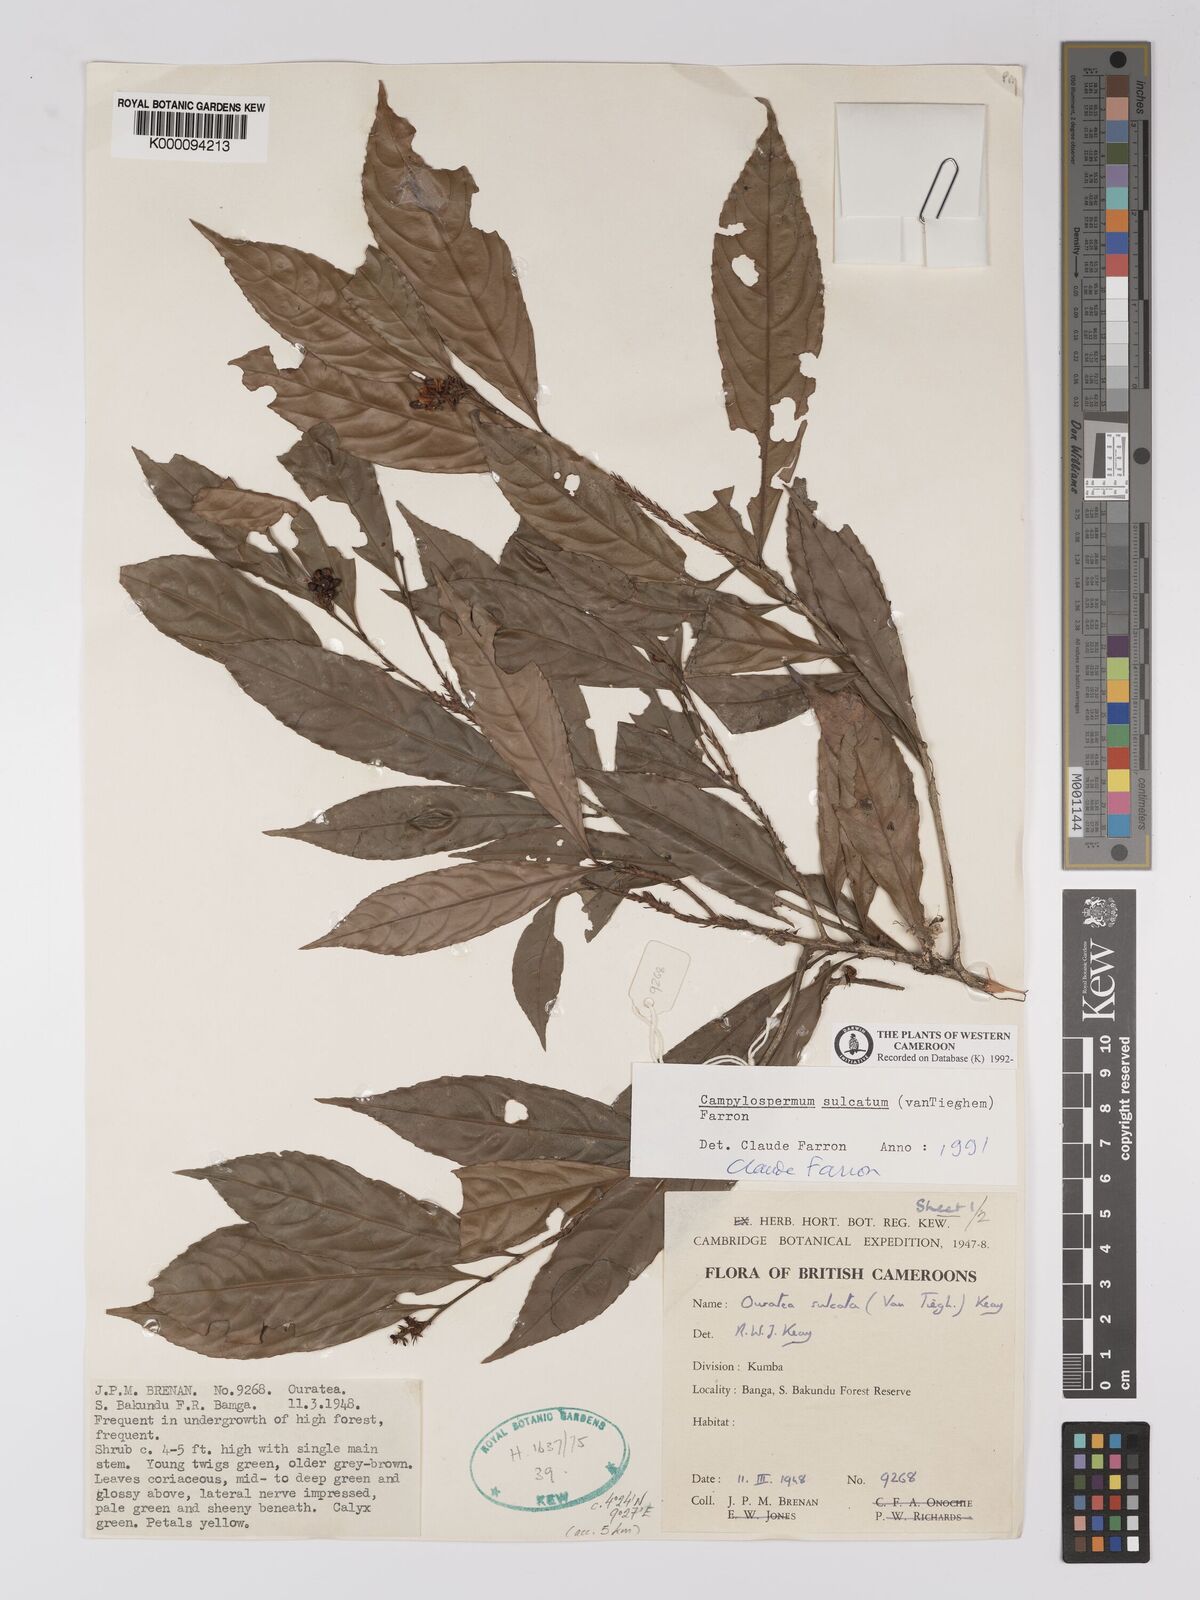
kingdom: Plantae
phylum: Tracheophyta
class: Magnoliopsida
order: Malpighiales
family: Ochnaceae
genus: Campylospermum
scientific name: Campylospermum sulcatum
